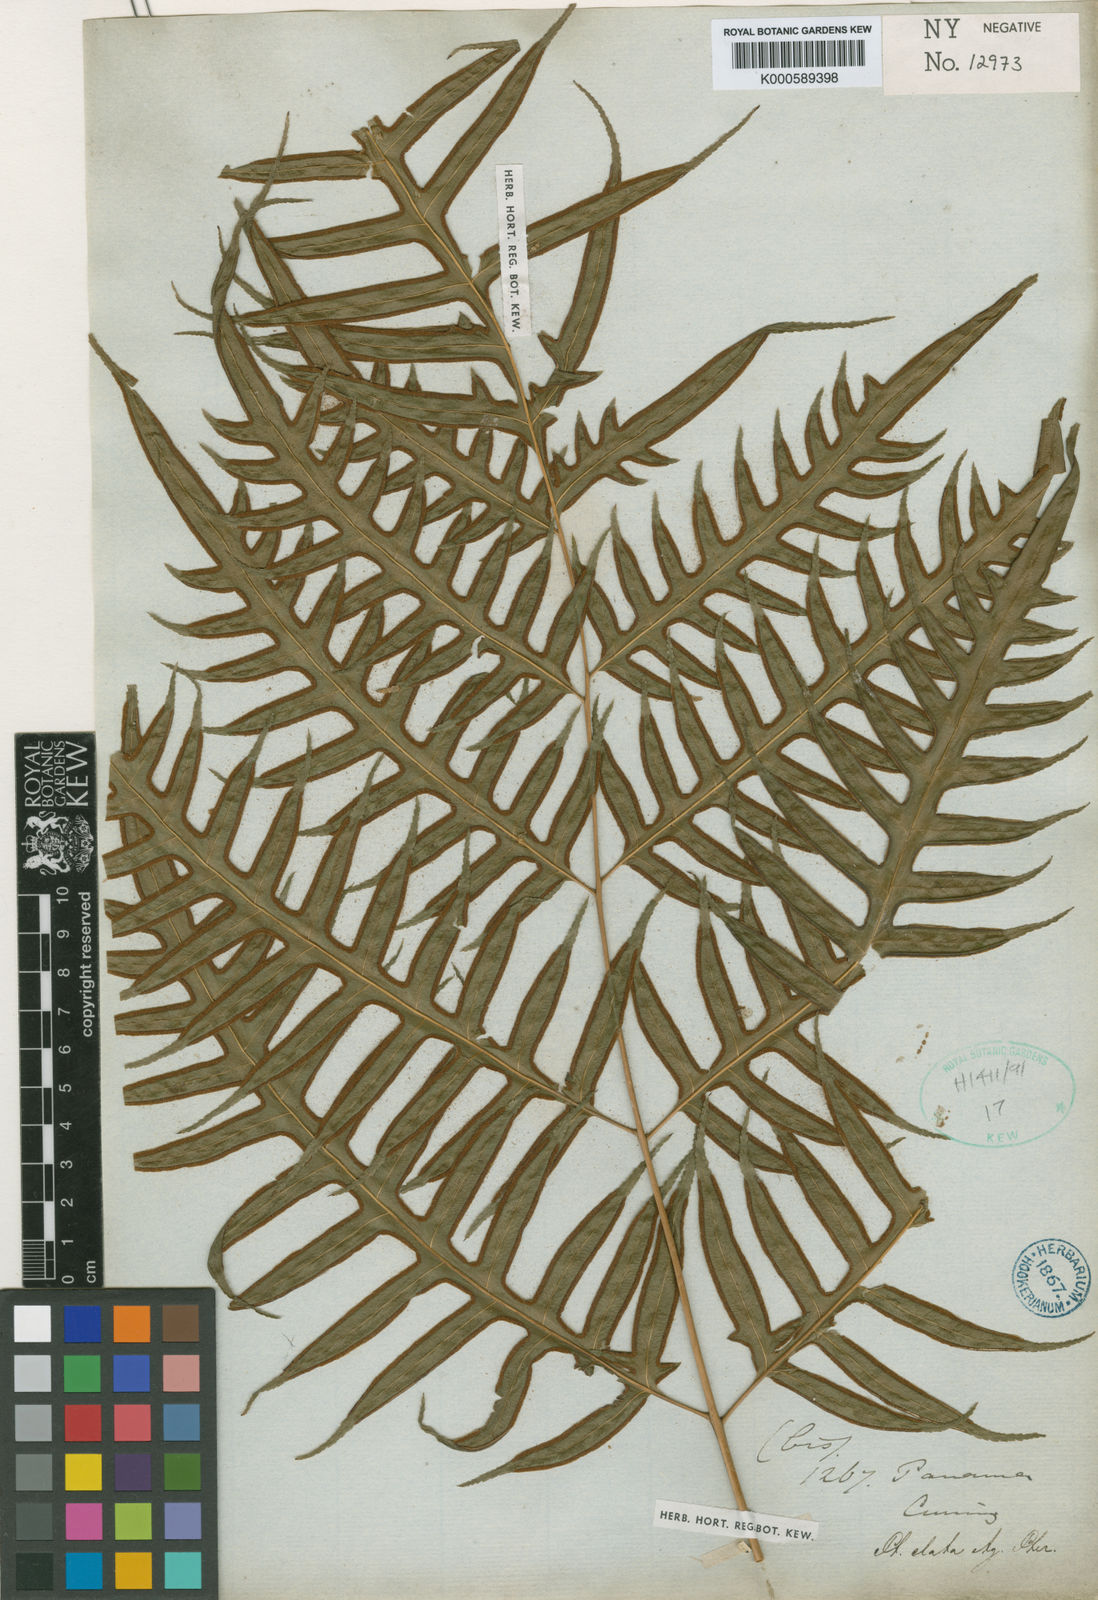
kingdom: Plantae
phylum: Tracheophyta
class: Polypodiopsida
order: Polypodiales
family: Pteridaceae
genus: Pteris
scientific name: Pteris podophylla
